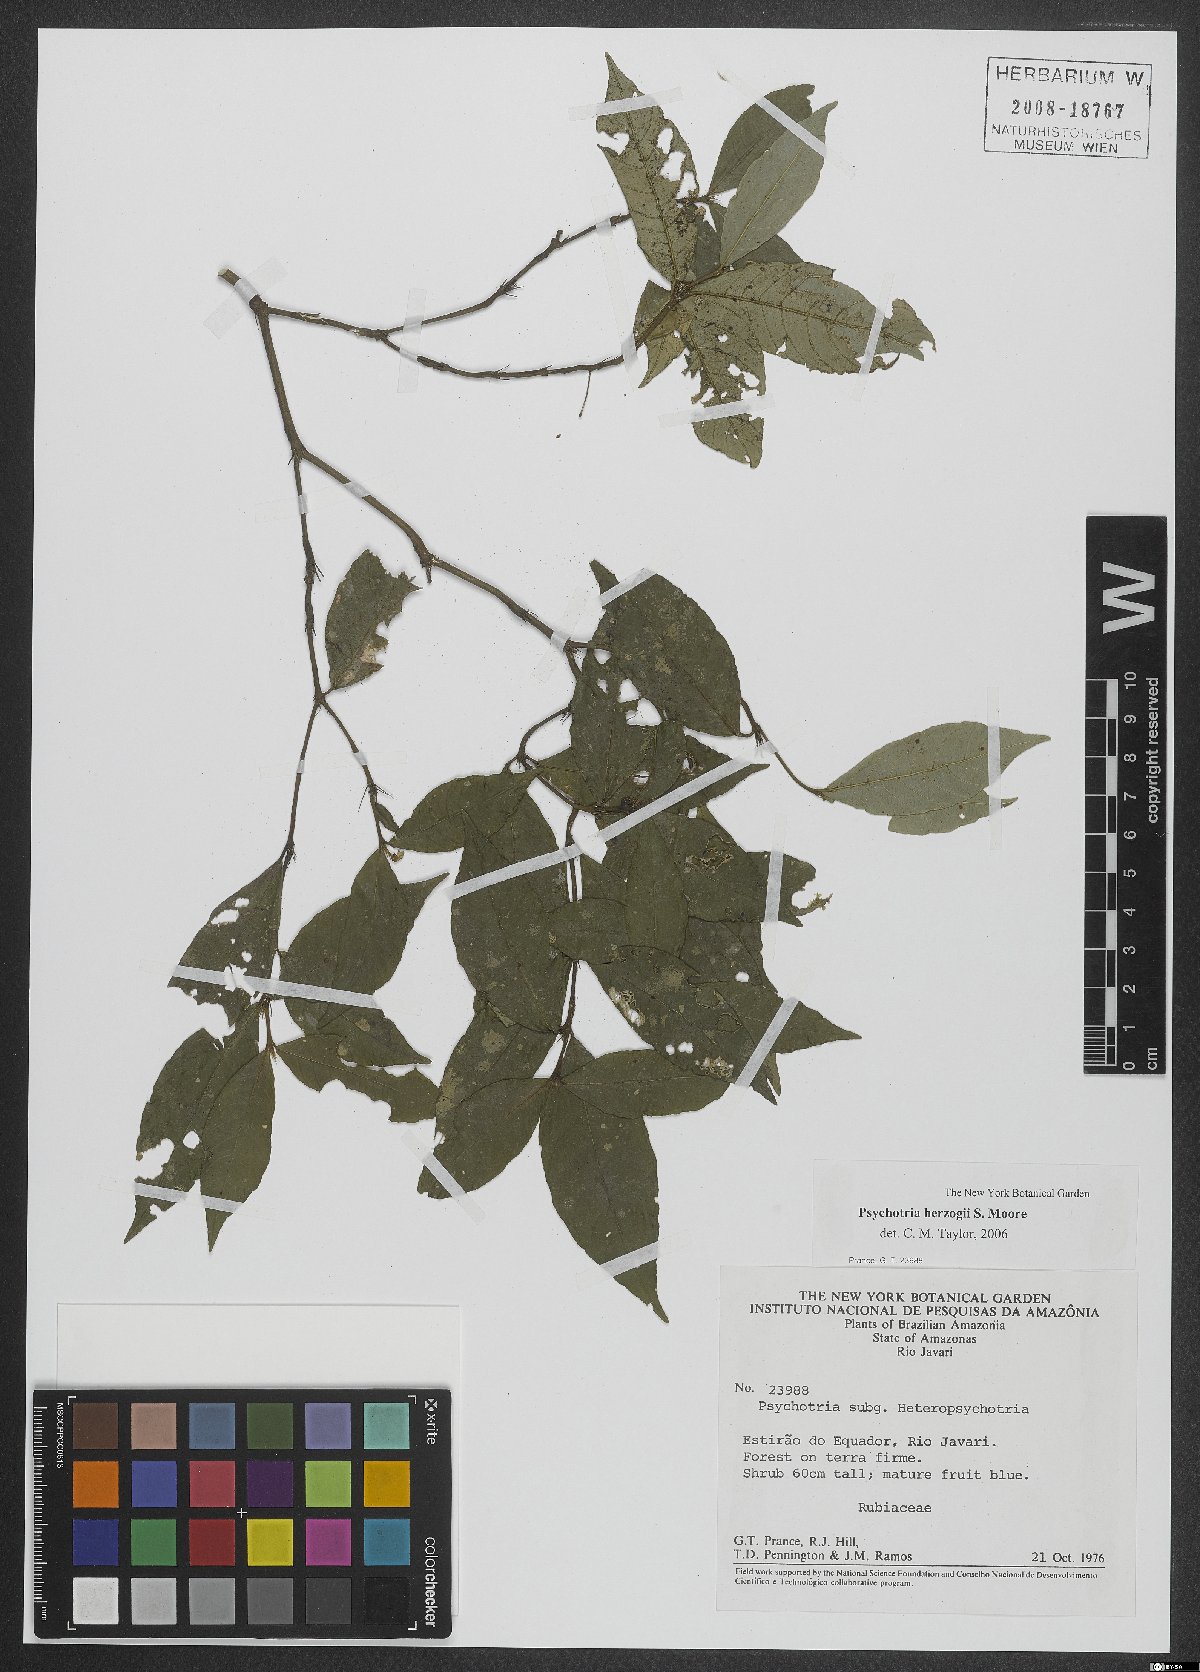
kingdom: Plantae
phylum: Tracheophyta
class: Magnoliopsida
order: Gentianales
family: Rubiaceae
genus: Psychotria
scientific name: Psychotria herzogii
